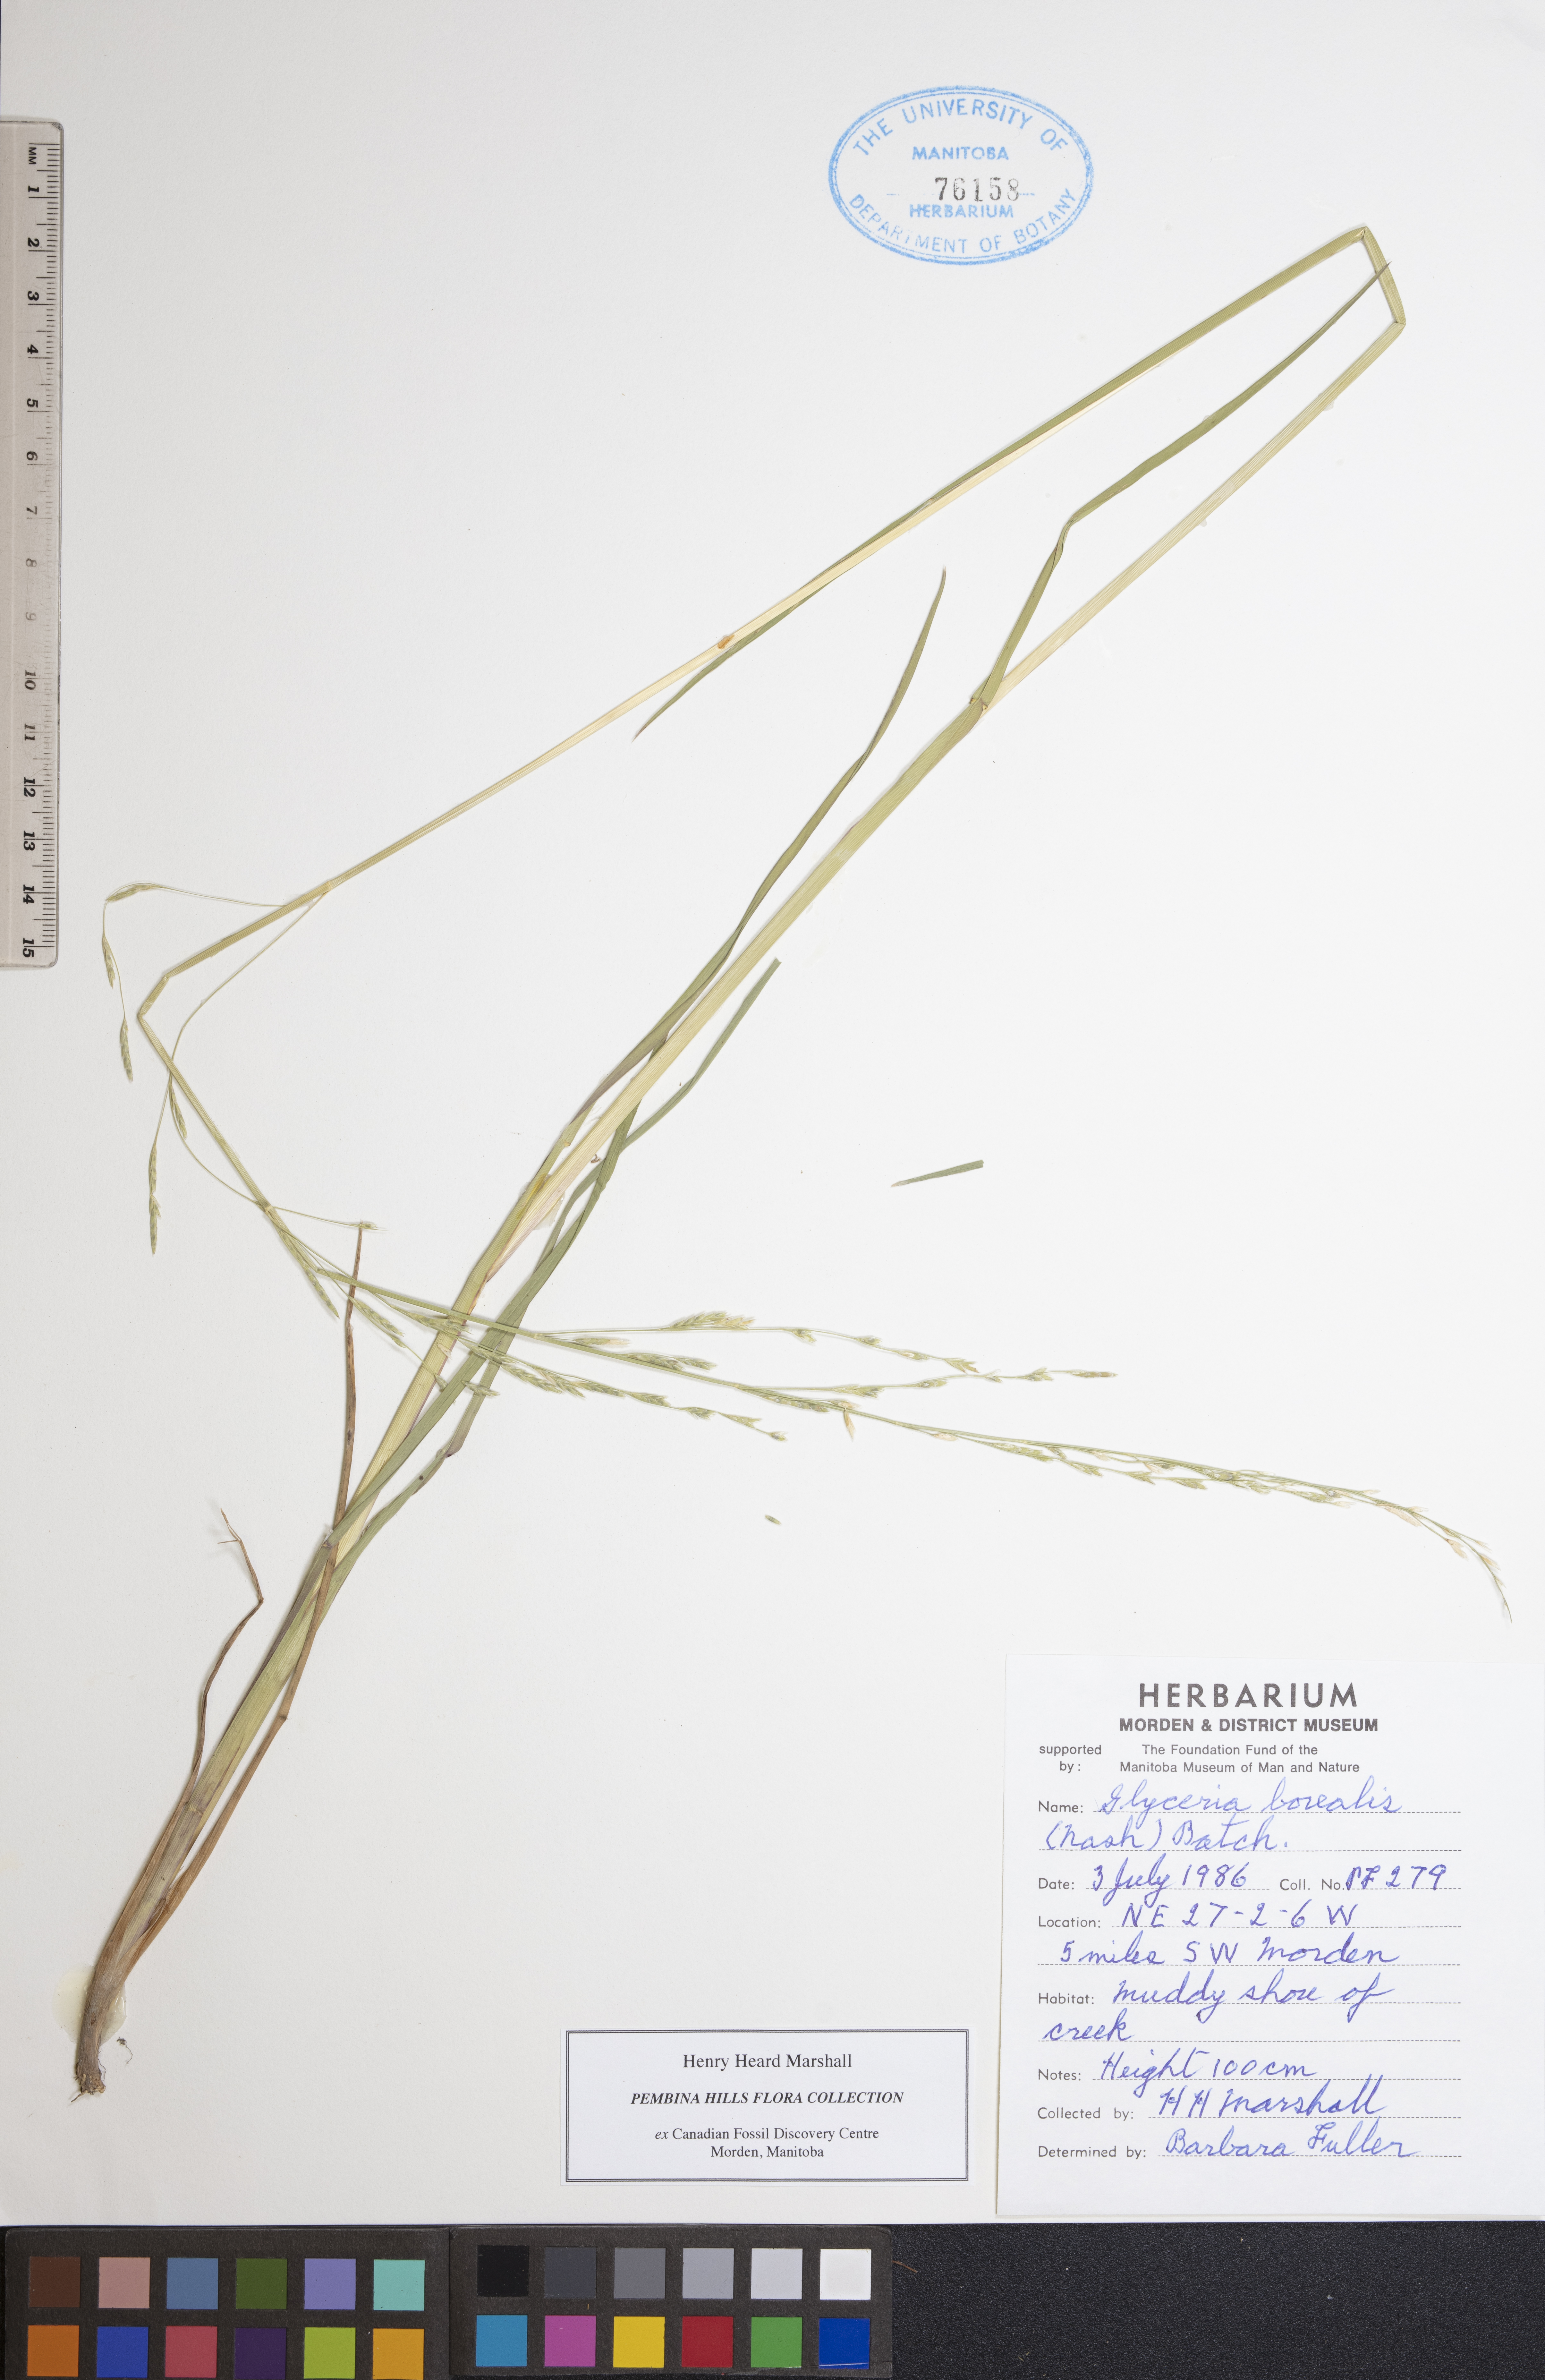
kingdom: Plantae
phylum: Tracheophyta
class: Liliopsida
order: Poales
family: Poaceae
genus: Glyceria
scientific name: Glyceria borealis
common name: Boreal glyceria
